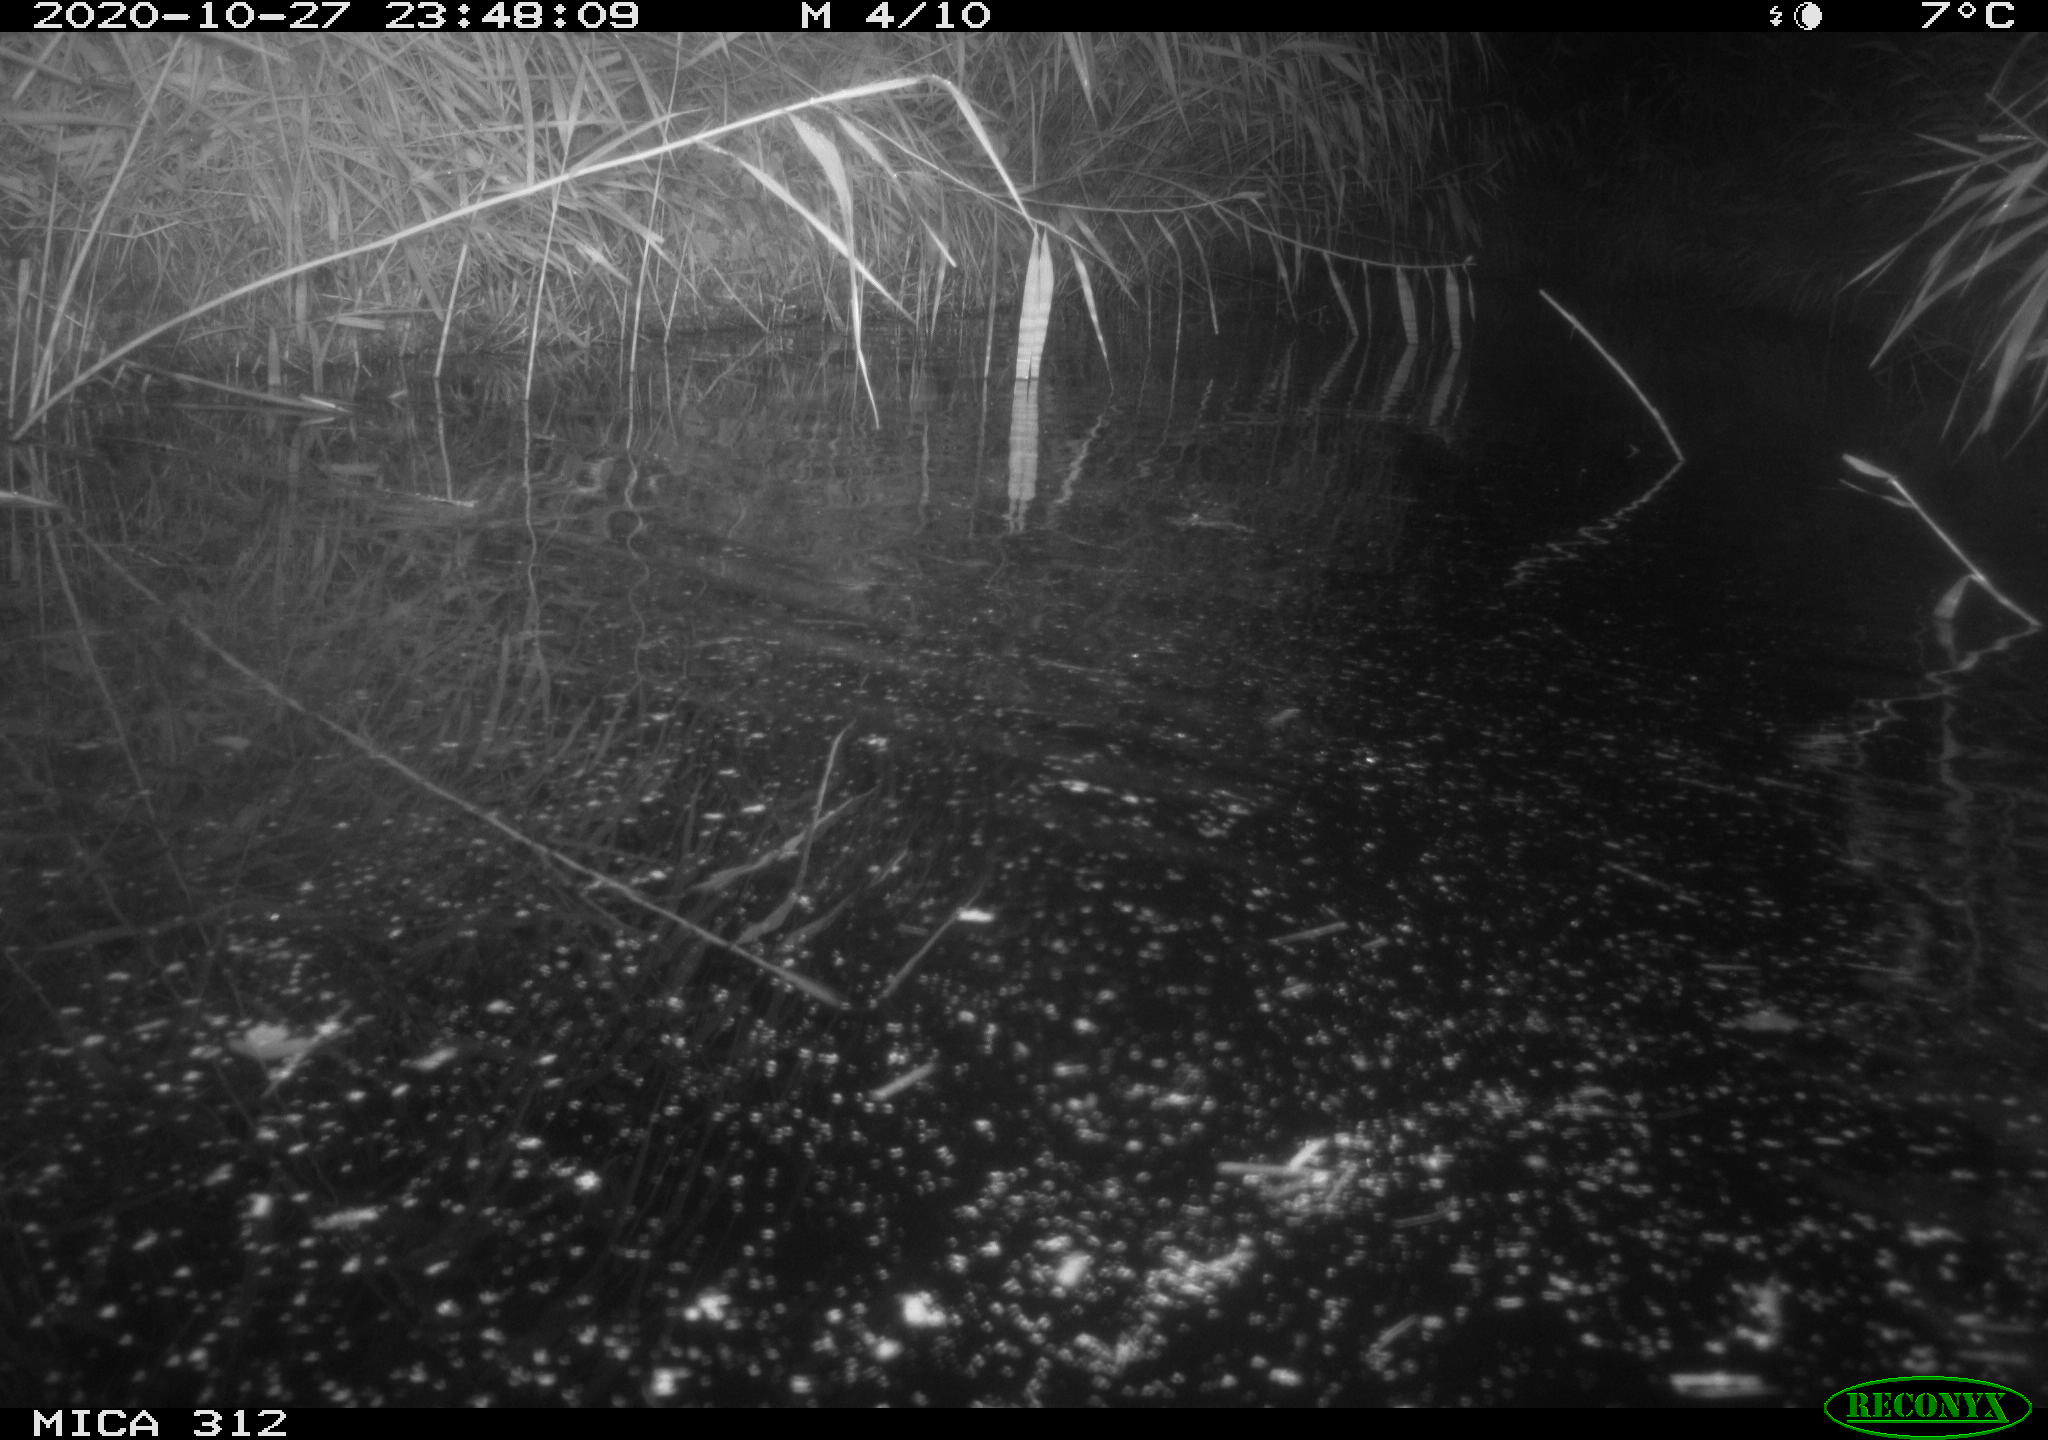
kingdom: Animalia
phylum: Chordata
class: Mammalia
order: Rodentia
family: Muridae
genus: Rattus
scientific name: Rattus norvegicus
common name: Brown rat
